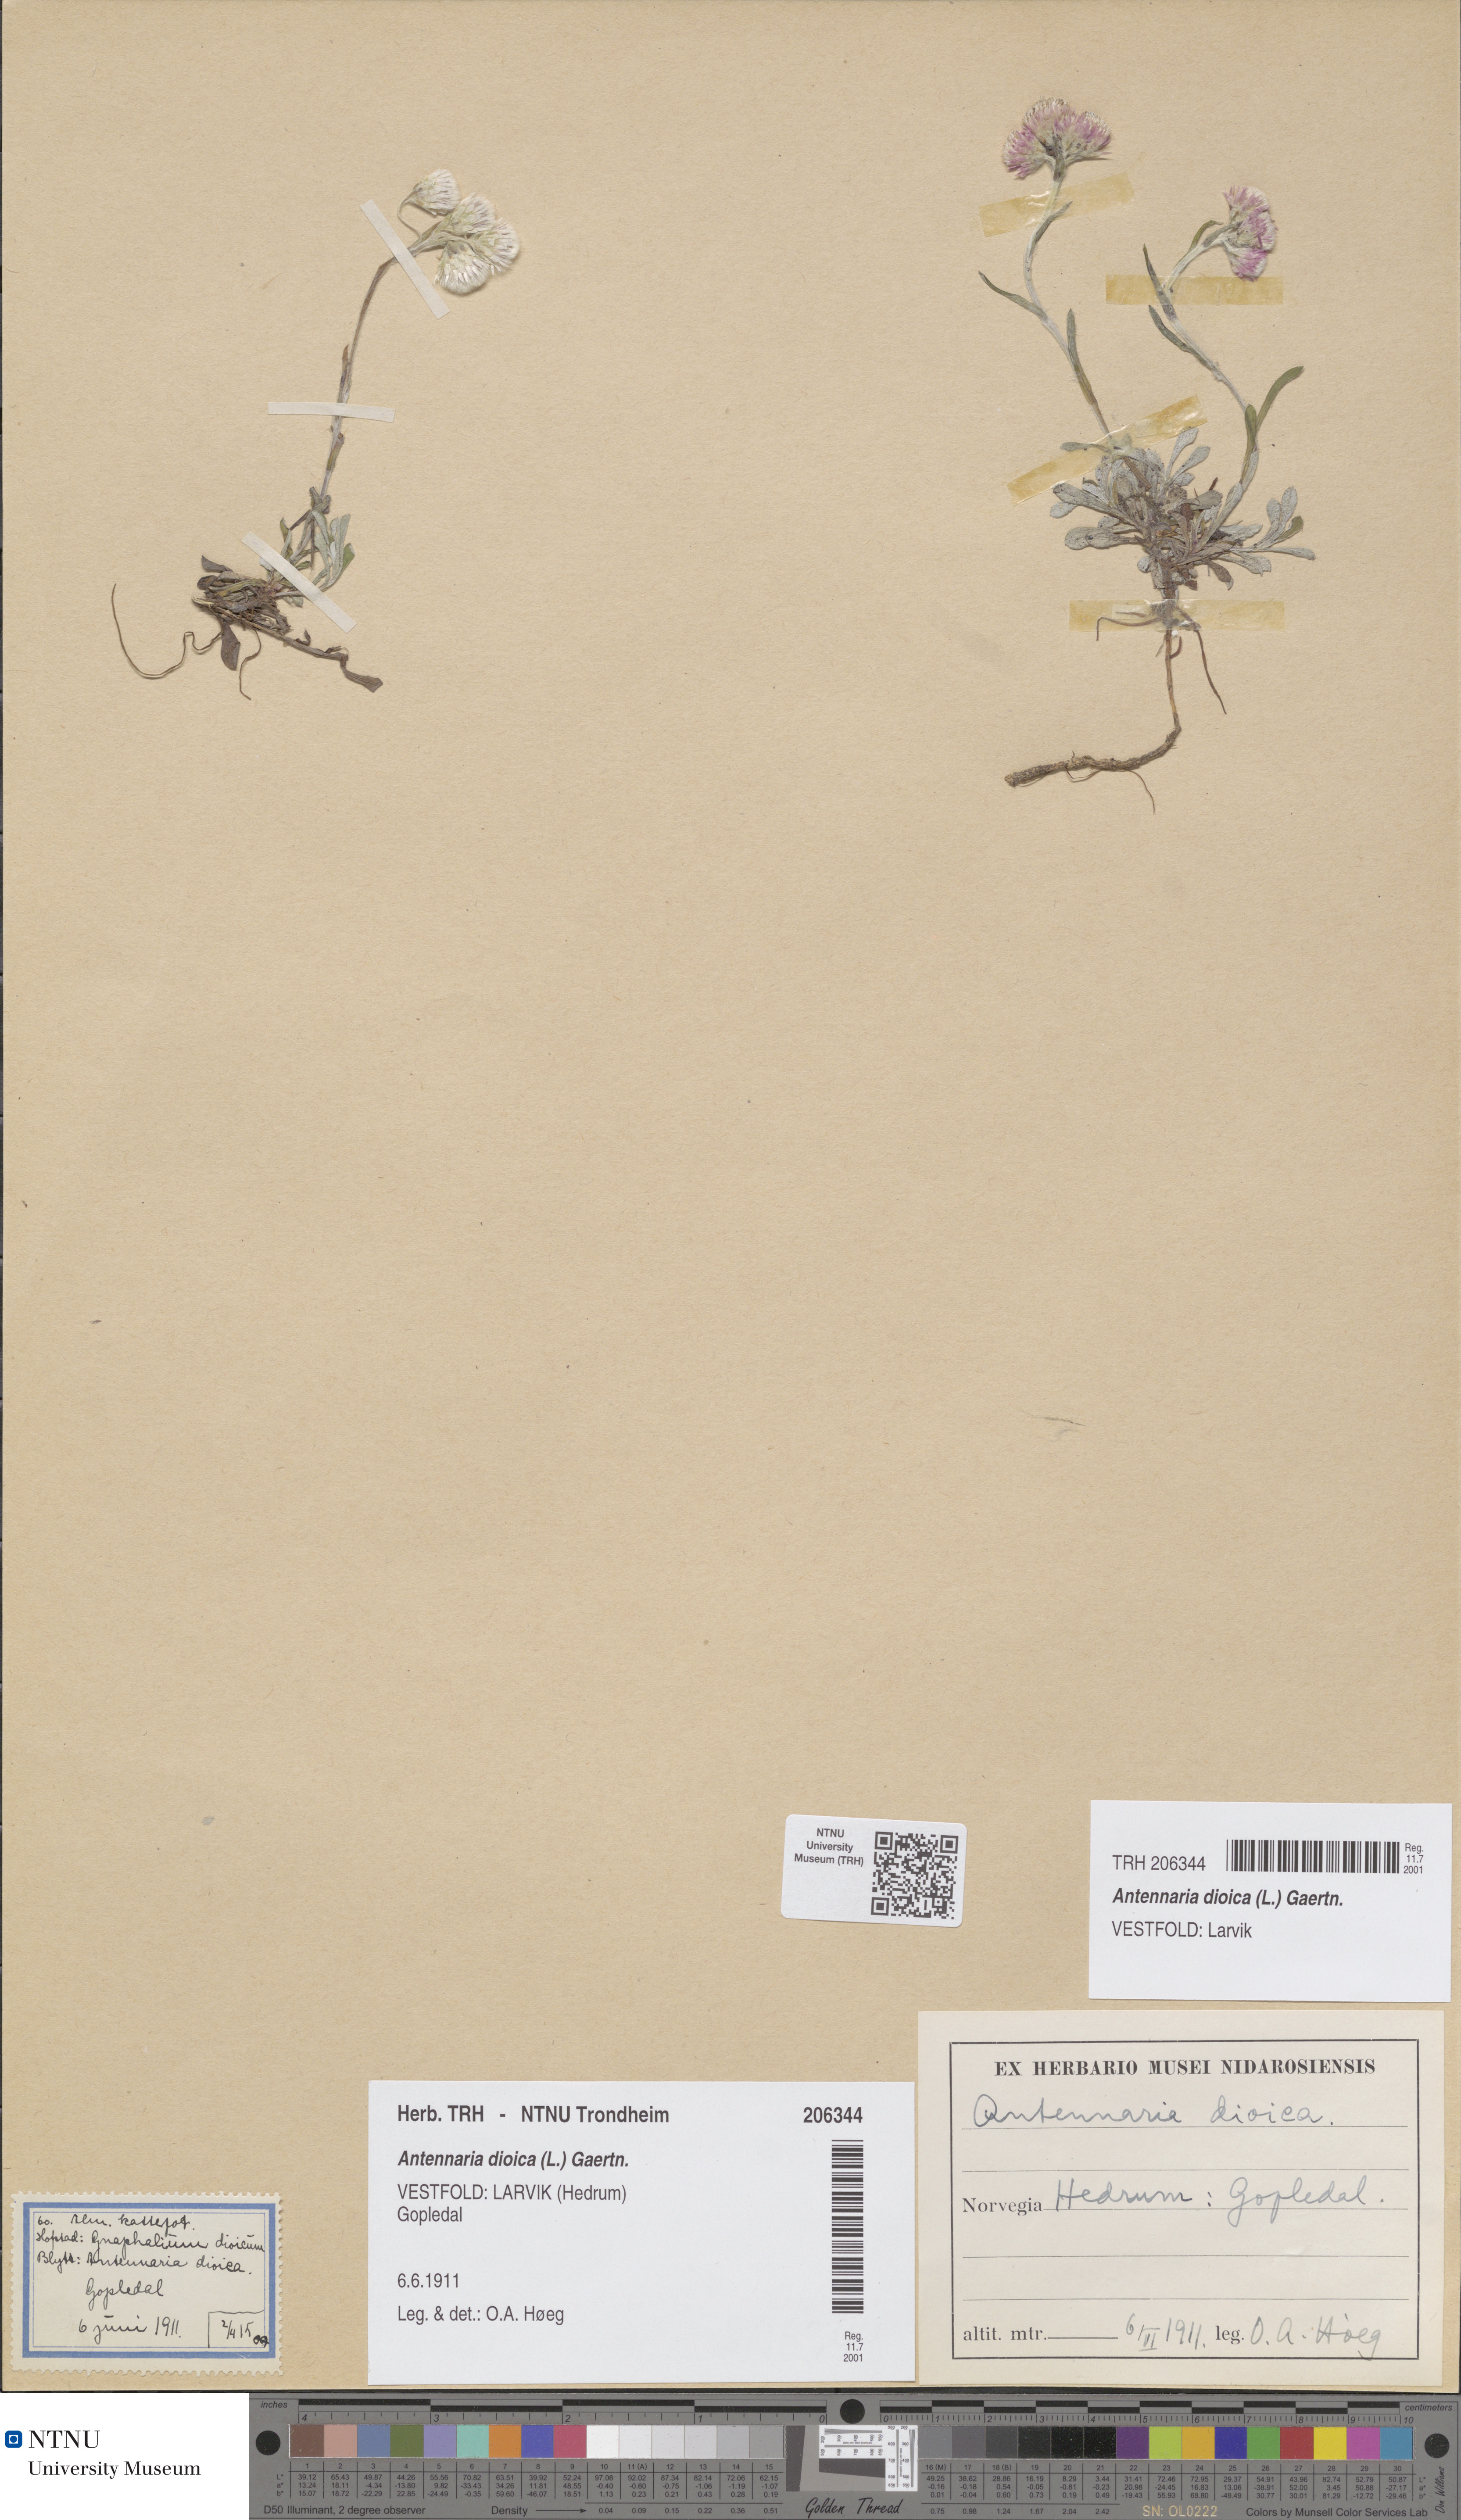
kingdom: Plantae
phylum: Tracheophyta
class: Magnoliopsida
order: Asterales
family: Asteraceae
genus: Antennaria
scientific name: Antennaria dioica
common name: Mountain everlasting
